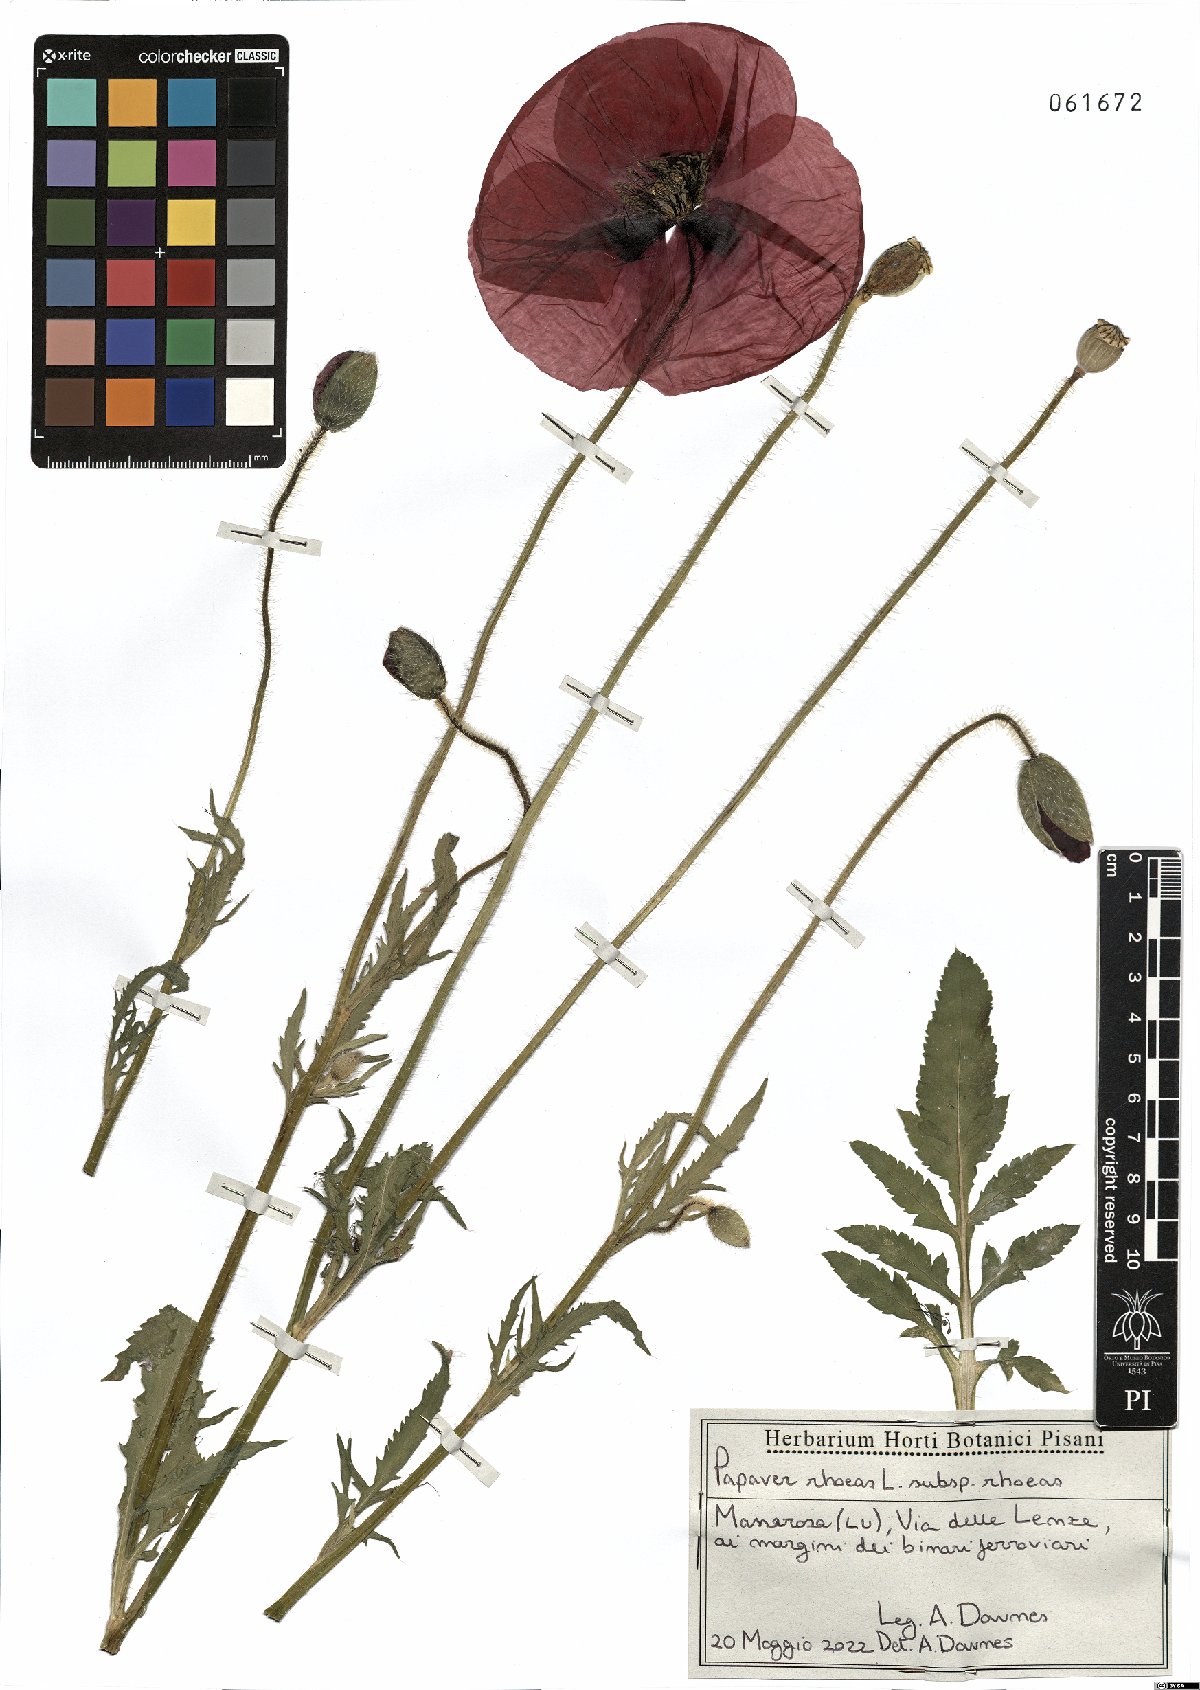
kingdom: Plantae
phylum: Tracheophyta
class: Magnoliopsida
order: Ranunculales
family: Papaveraceae
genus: Papaver
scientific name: Papaver rhoeas
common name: Corn poppy
